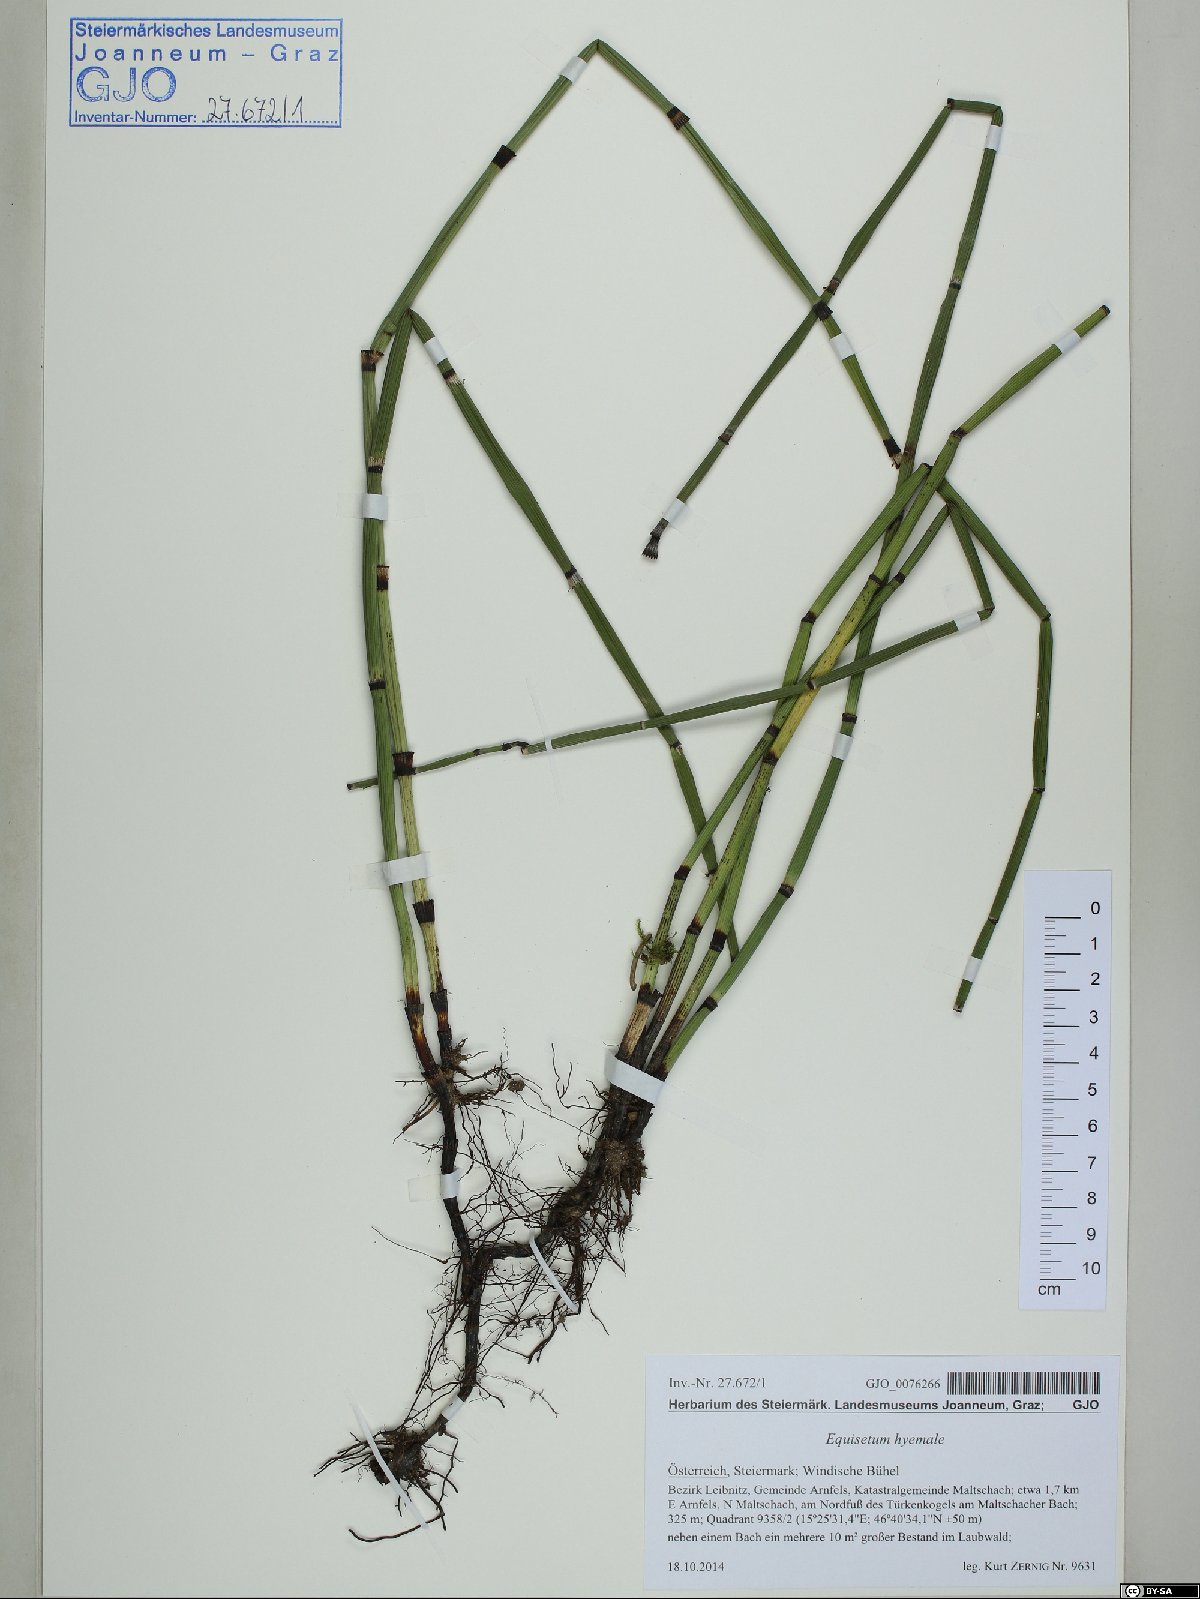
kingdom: Plantae
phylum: Tracheophyta
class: Polypodiopsida
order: Equisetales
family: Equisetaceae
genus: Equisetum
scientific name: Equisetum hyemale
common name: Rough horsetail
